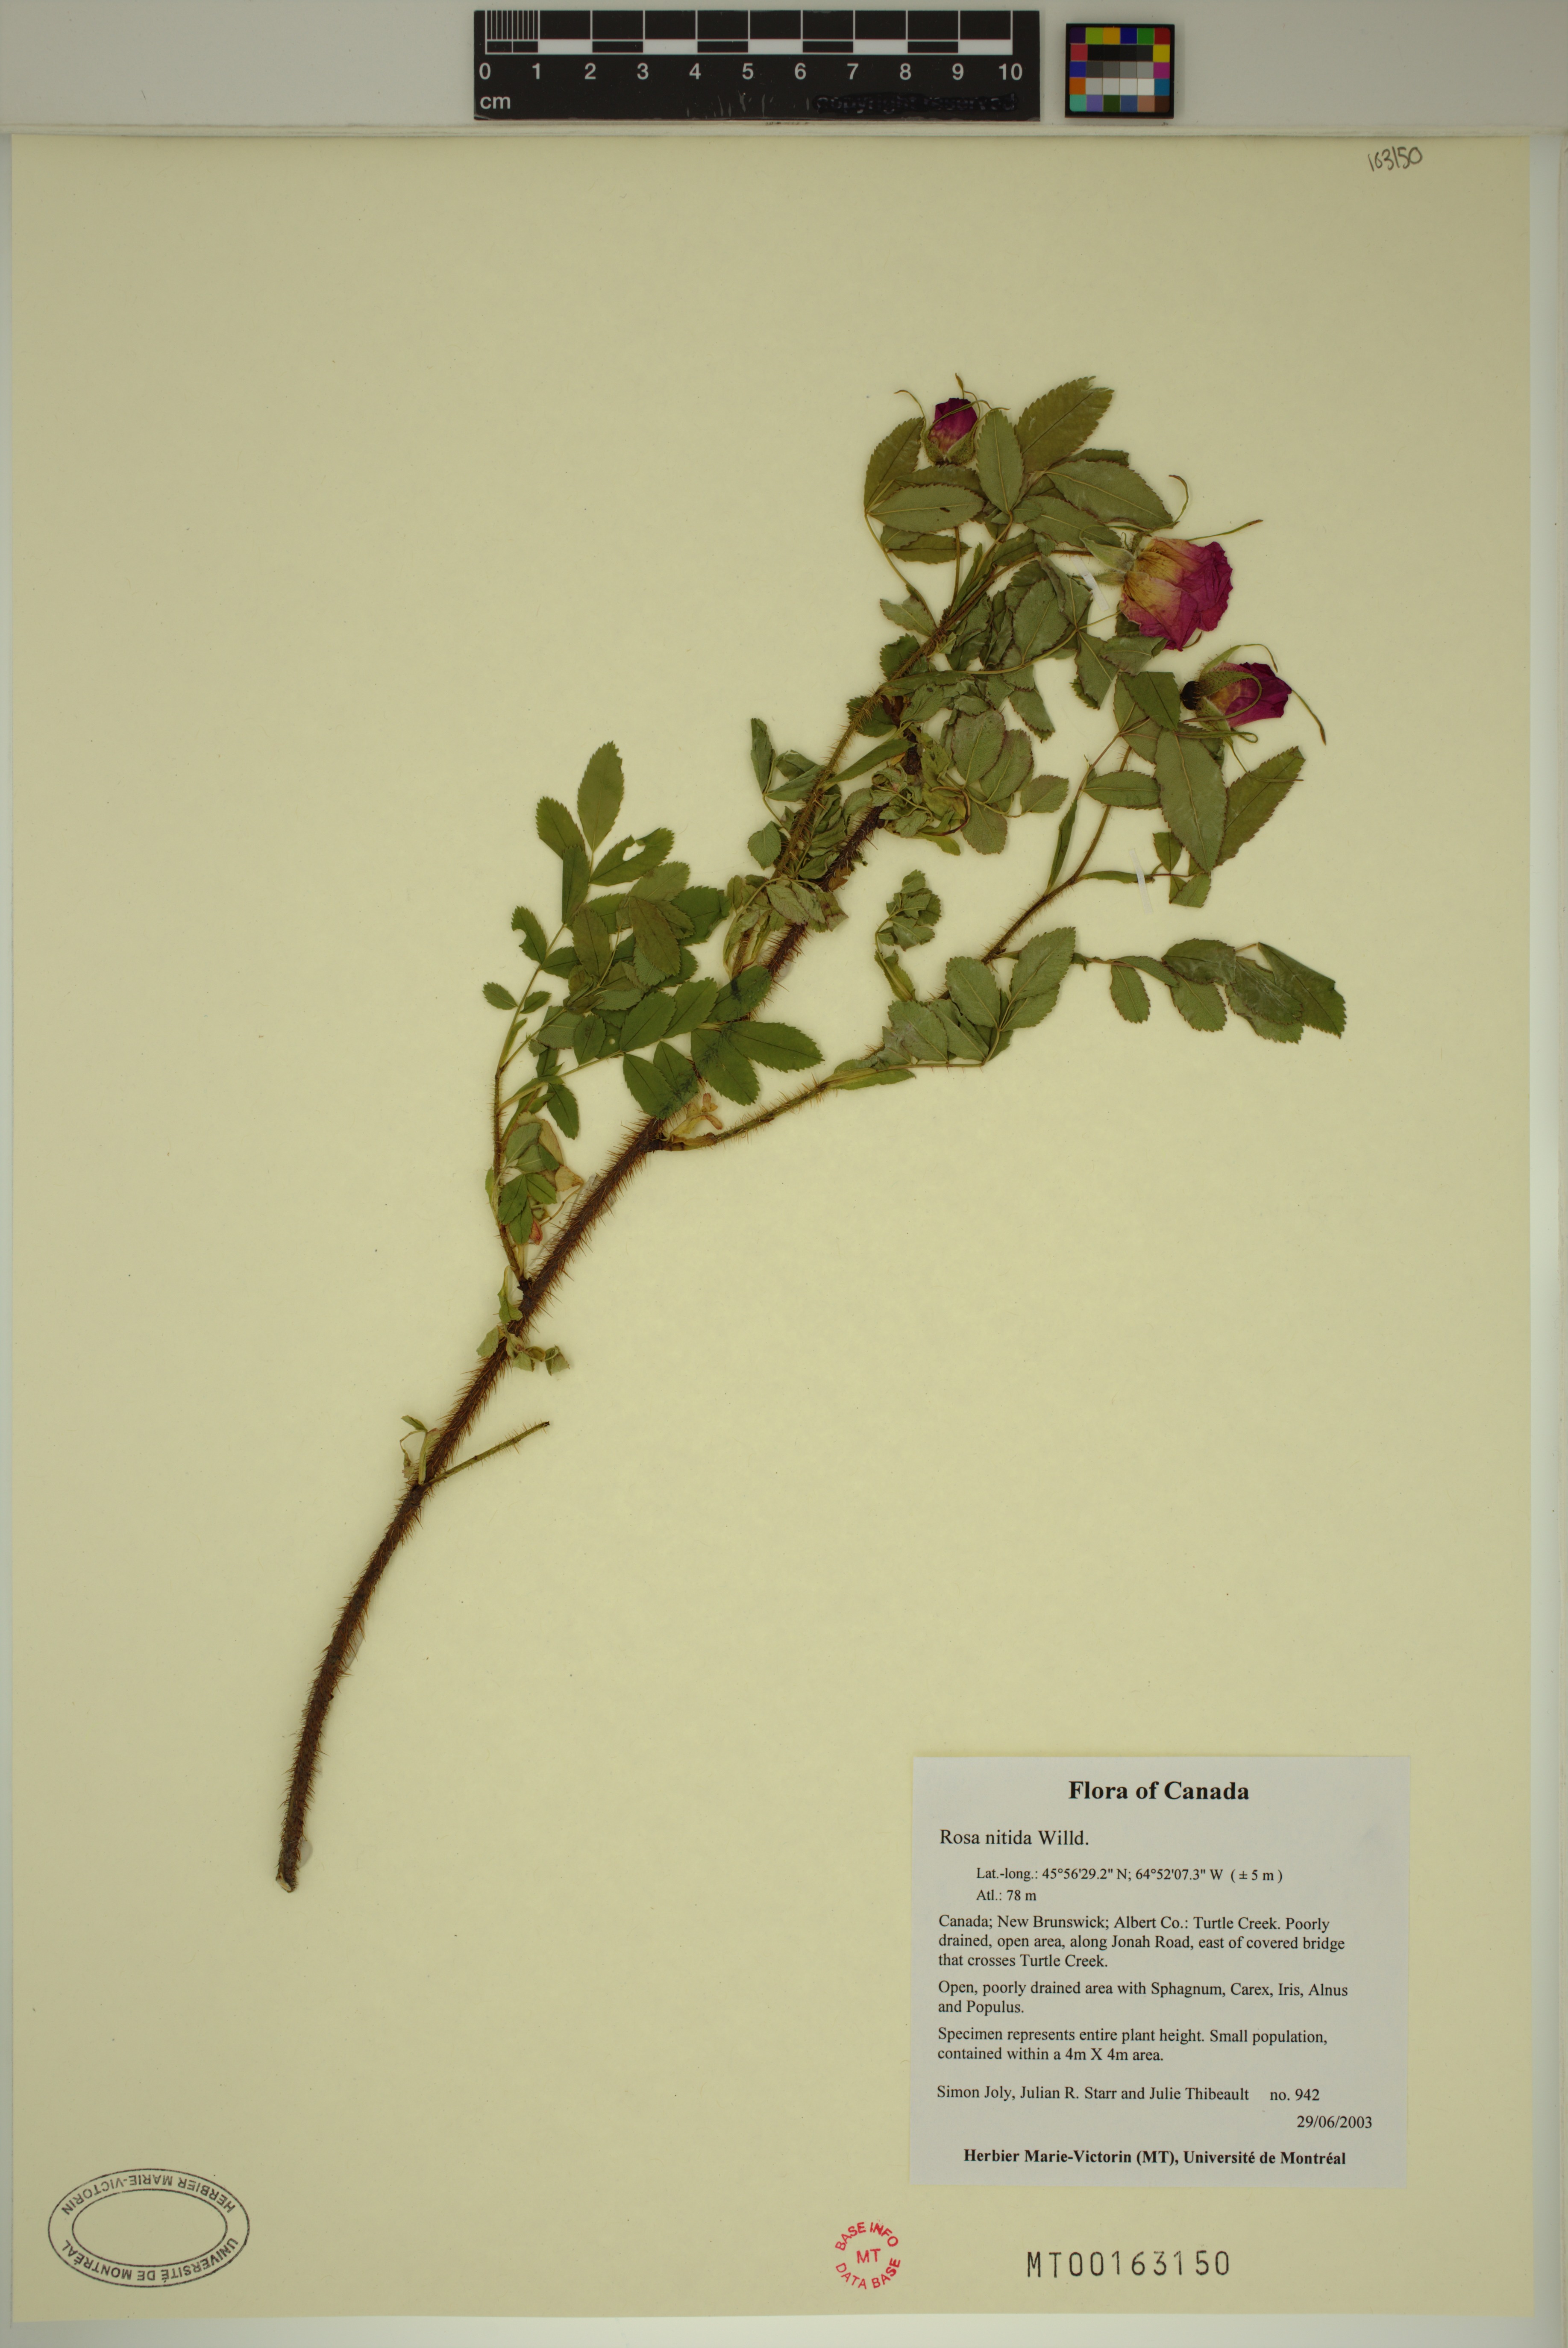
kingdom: Plantae
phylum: Tracheophyta
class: Magnoliopsida
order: Rosales
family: Rosaceae
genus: Rosa
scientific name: Rosa nitida
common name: New england rose
